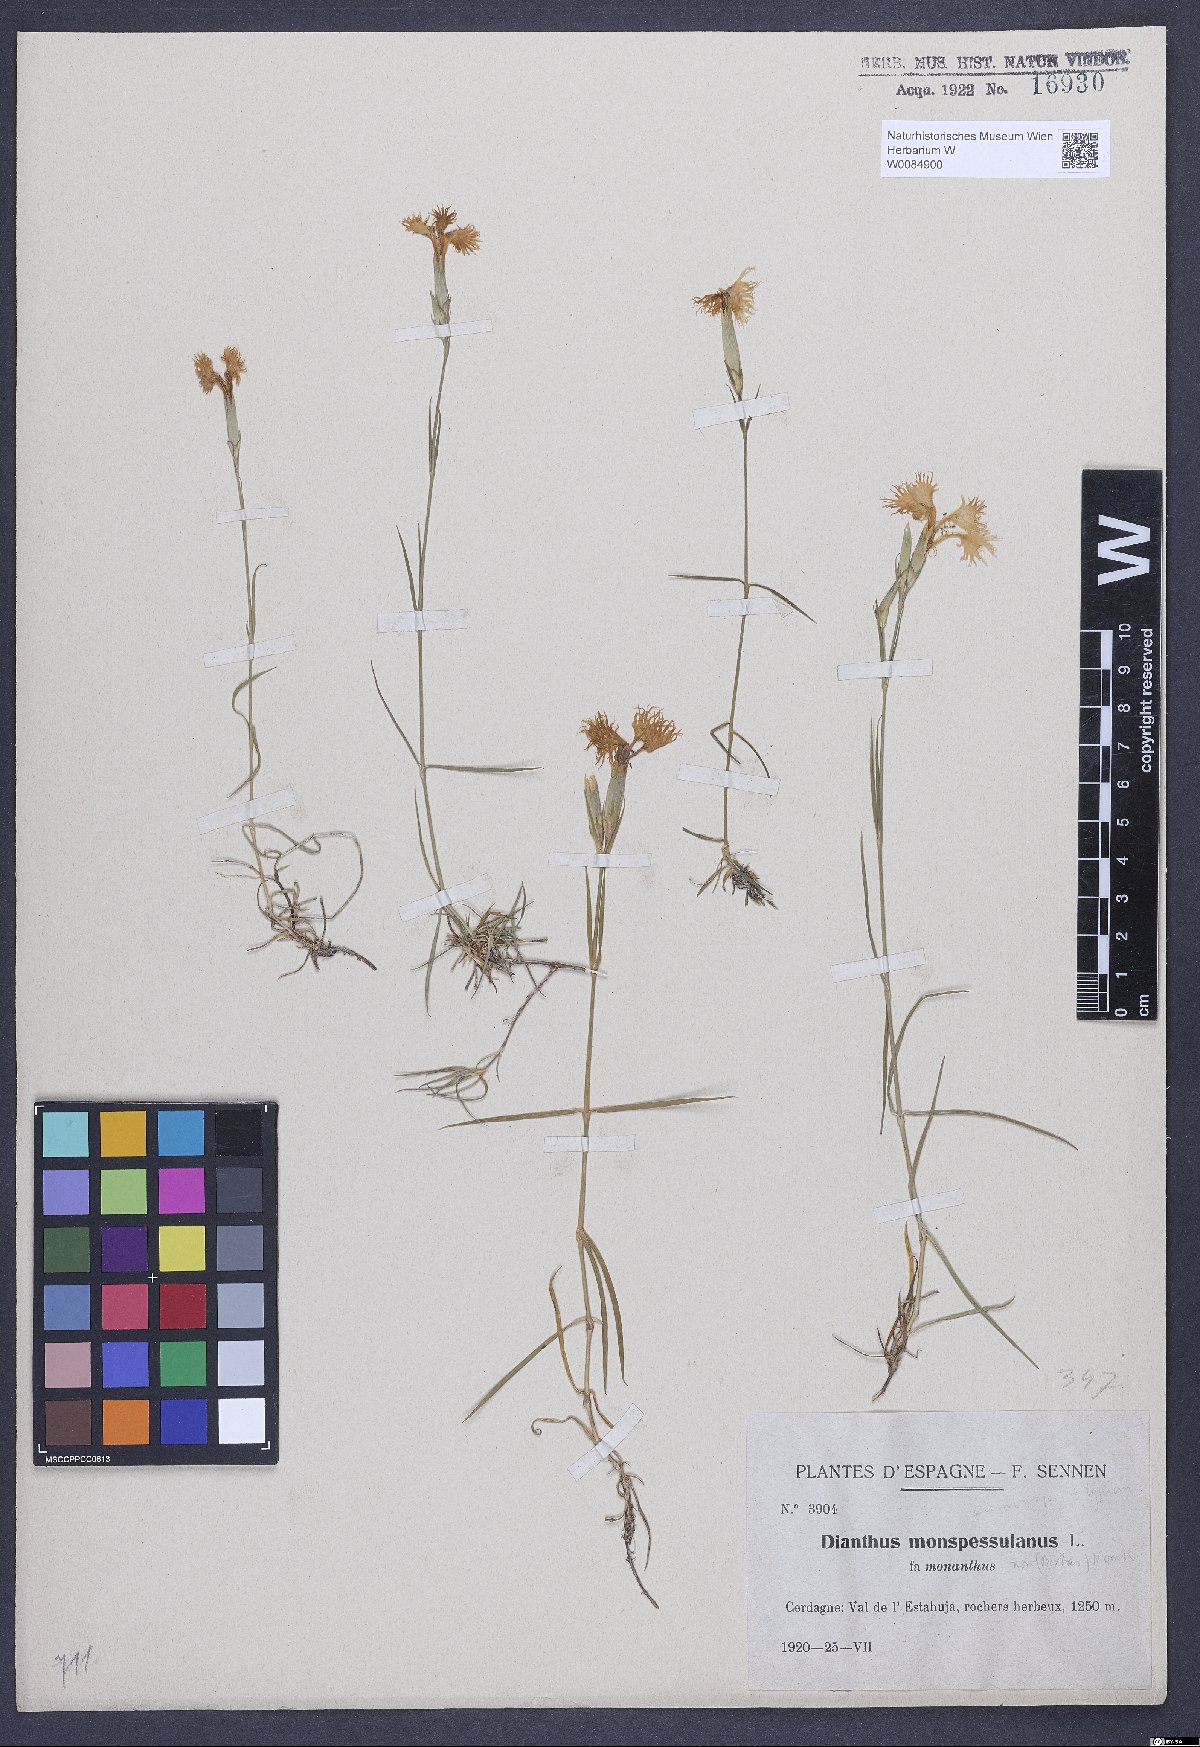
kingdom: Plantae
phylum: Tracheophyta
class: Magnoliopsida
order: Caryophyllales
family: Caryophyllaceae
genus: Dianthus
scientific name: Dianthus hyssopifolius
